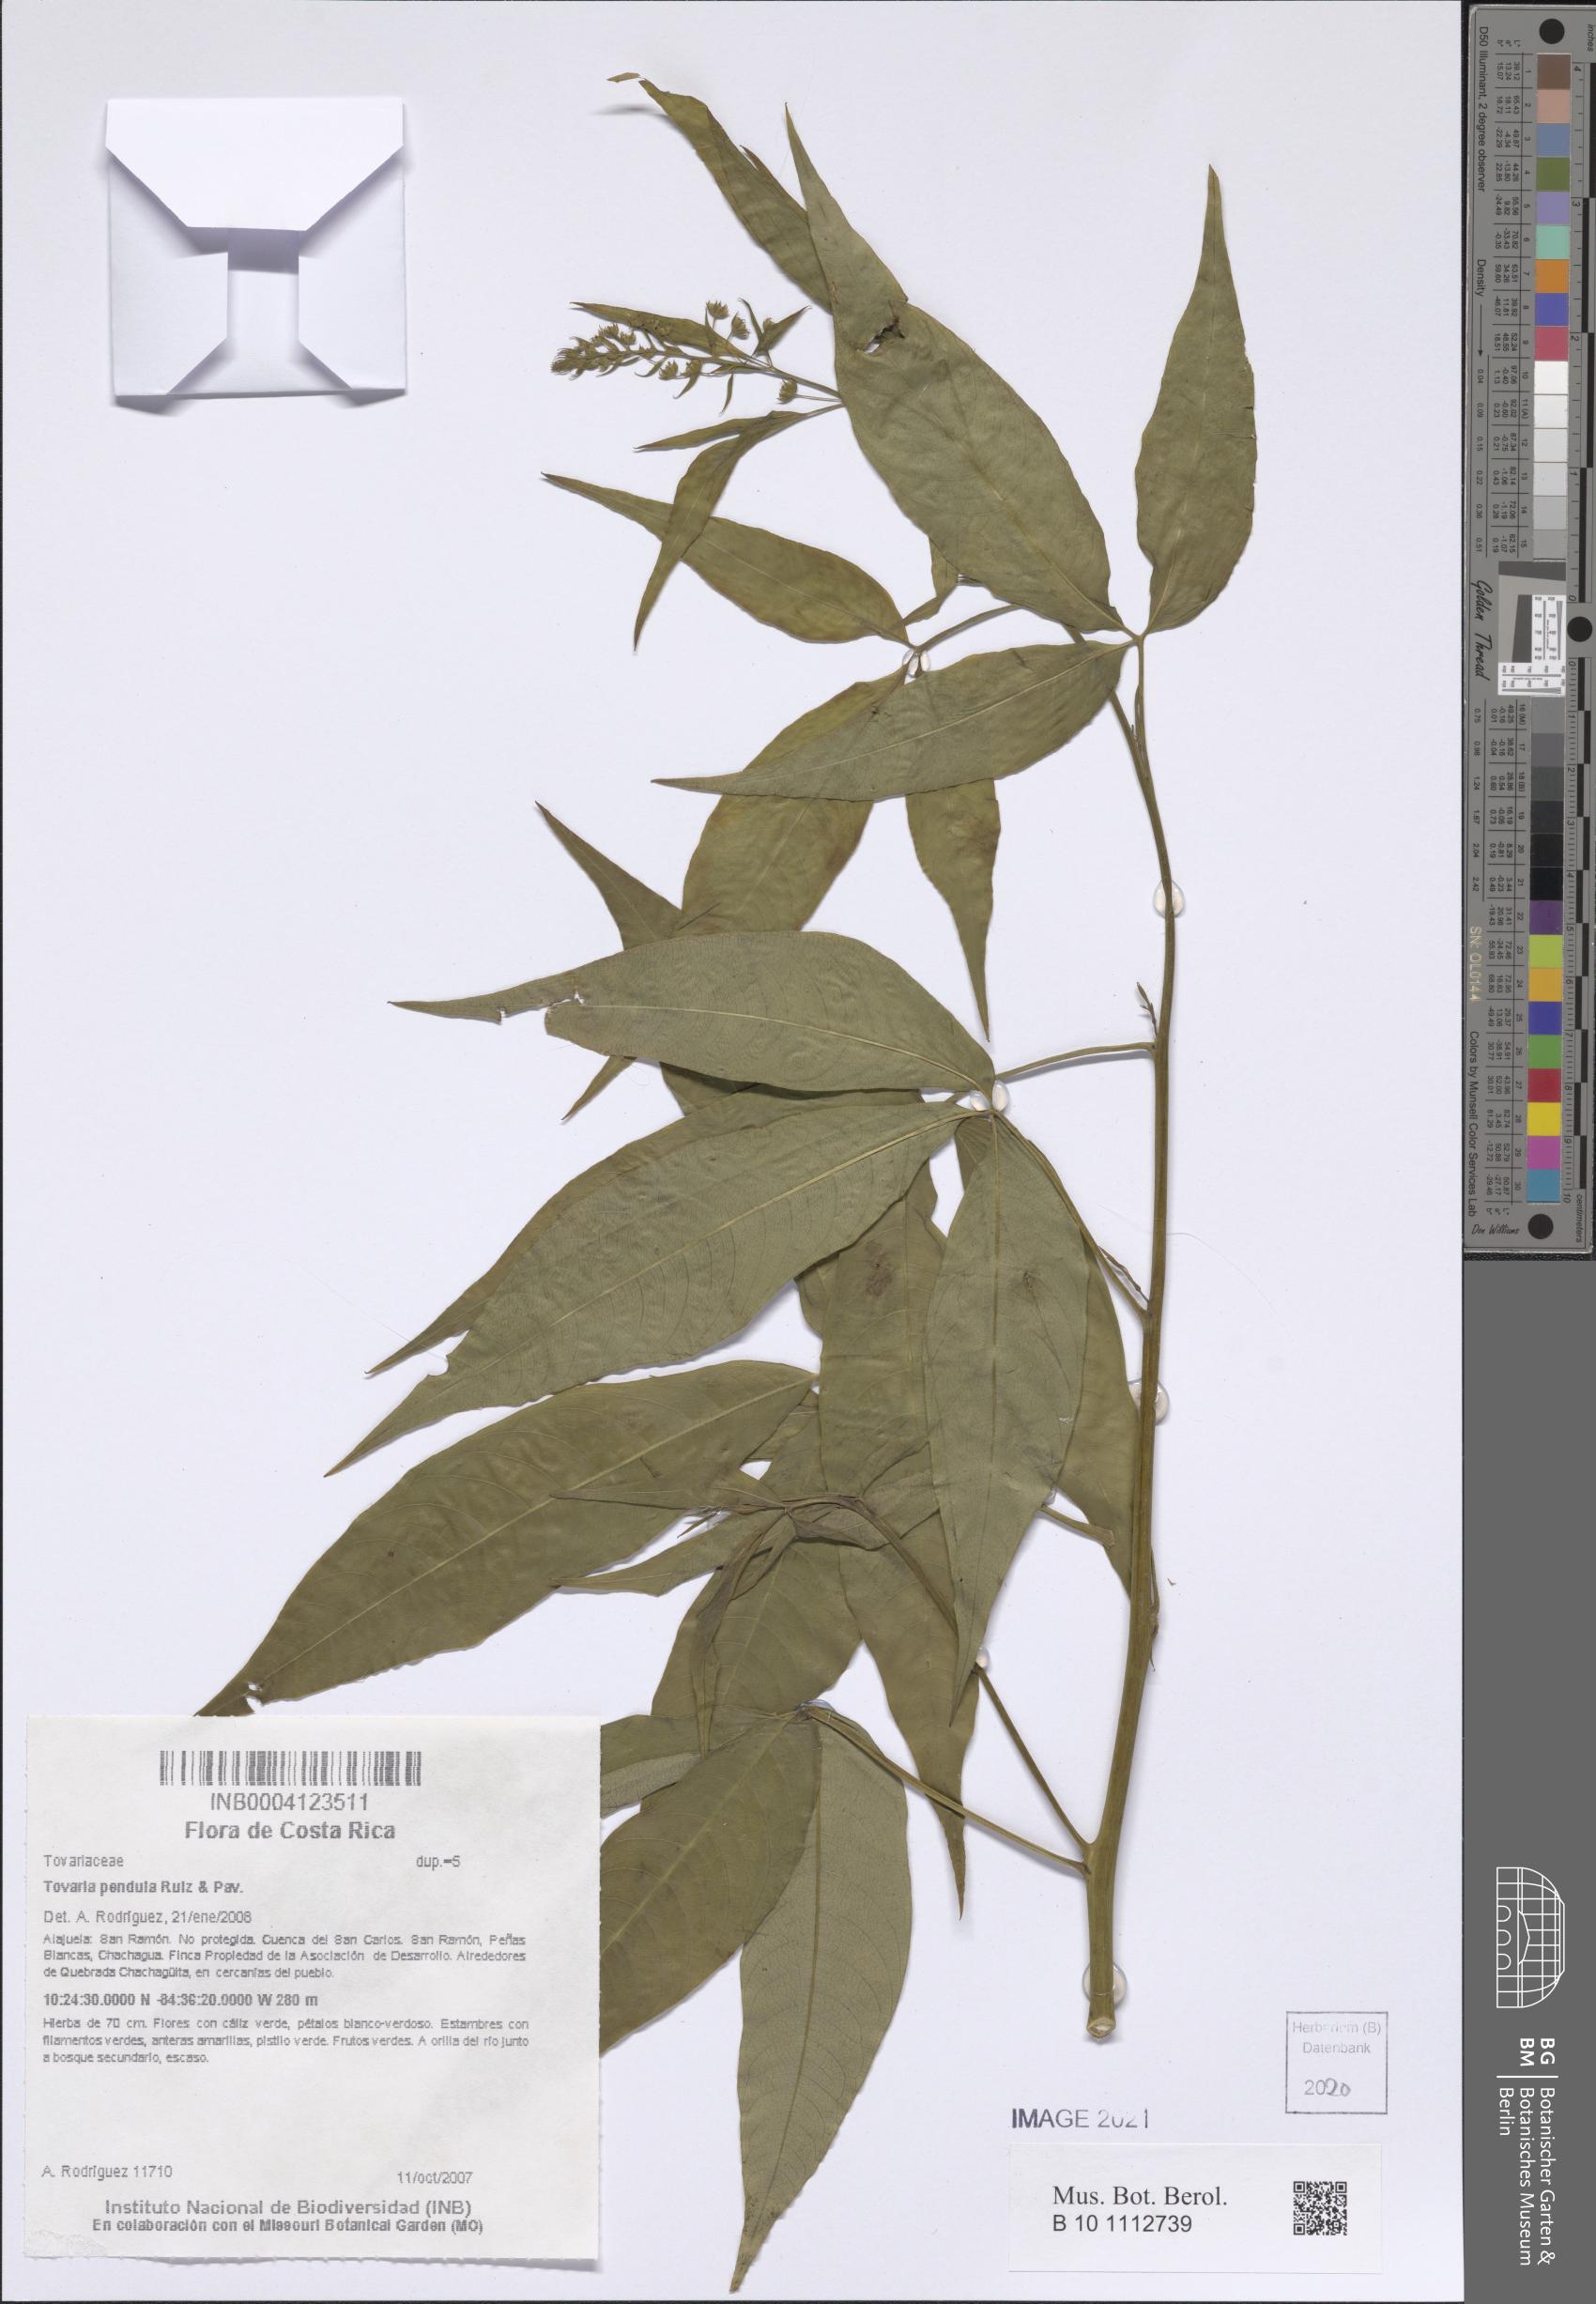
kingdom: Plantae
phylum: Tracheophyta
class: Magnoliopsida
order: Brassicales
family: Tovariaceae
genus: Tovaria
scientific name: Tovaria pendula
